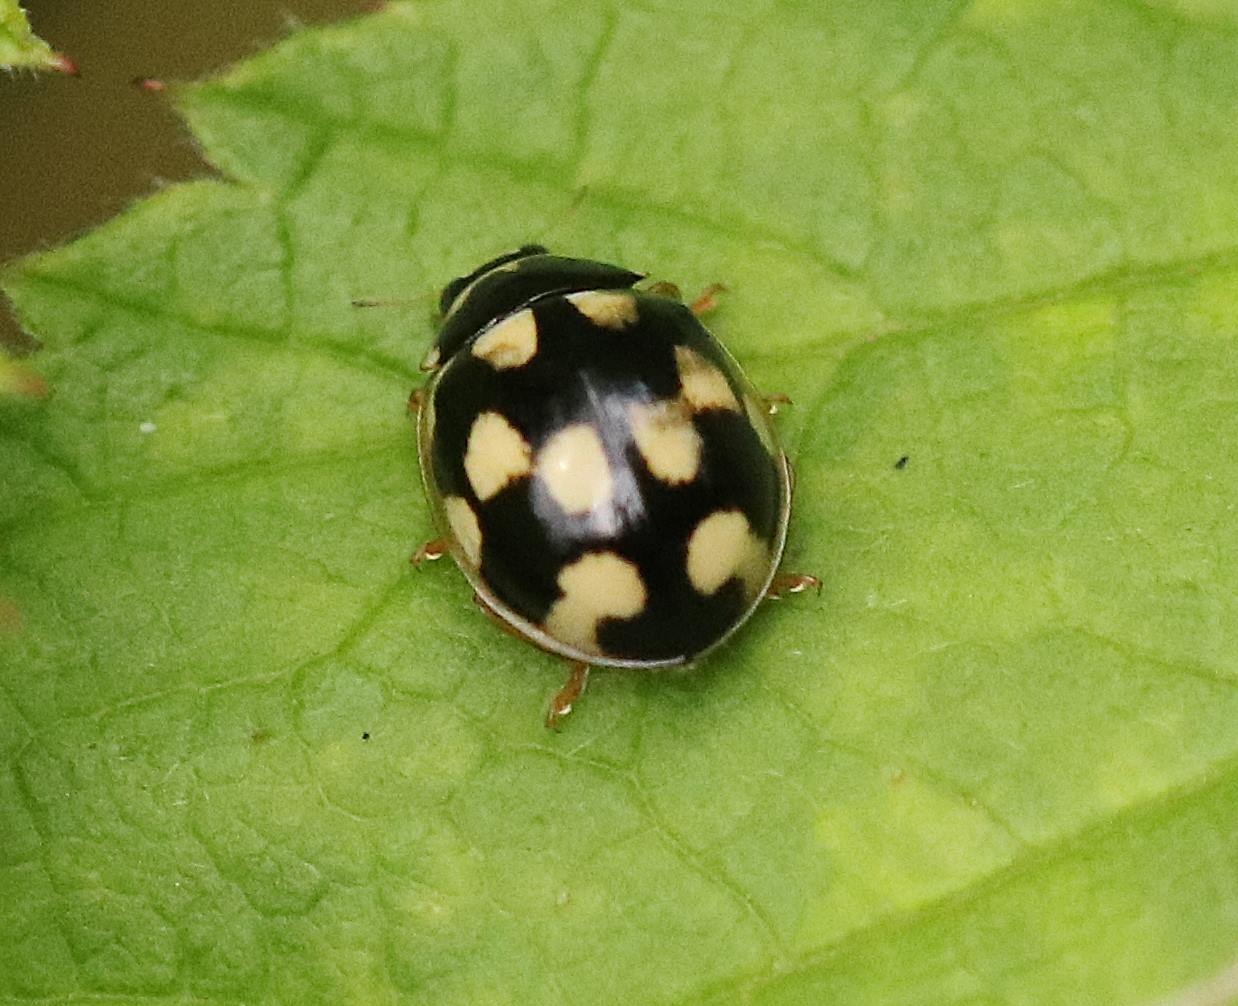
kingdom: Animalia
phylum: Arthropoda
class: Insecta
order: Coleoptera
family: Coccinellidae
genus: Propylaea
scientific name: Propylaea quatuordecimpunctata
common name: Skakbræt
